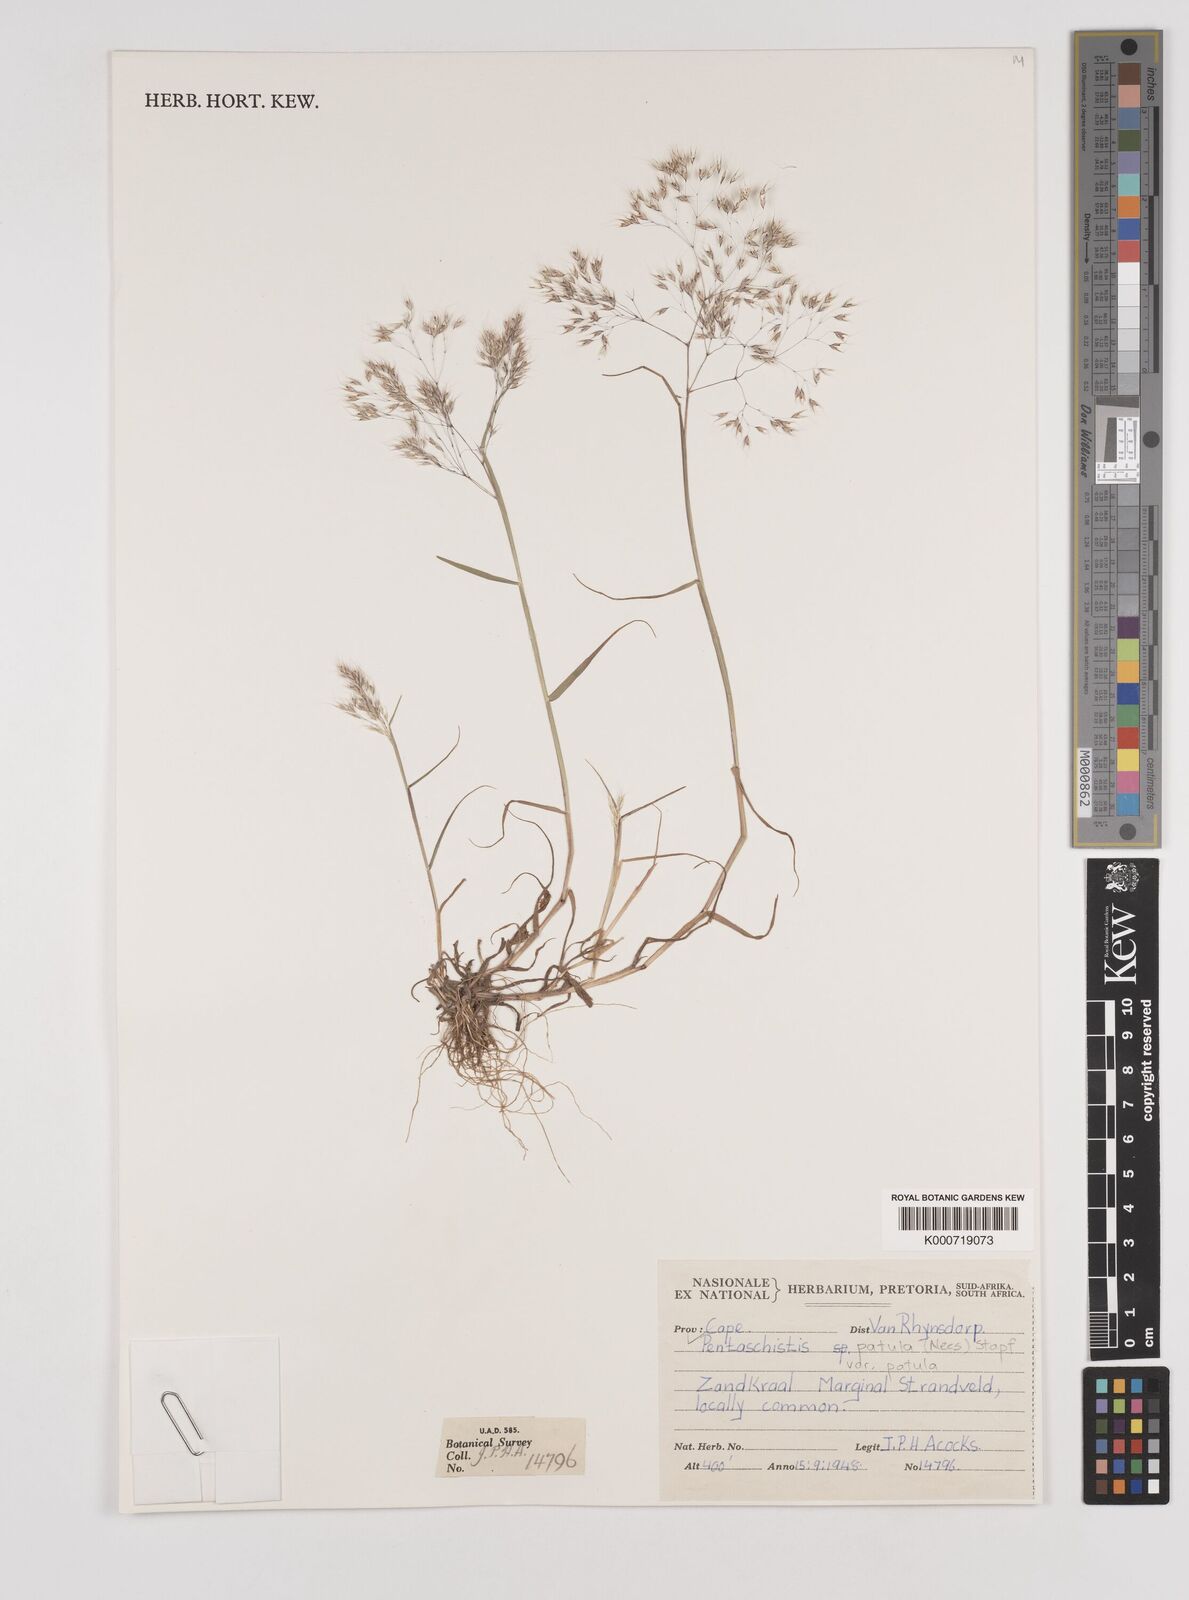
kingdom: Plantae
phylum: Tracheophyta
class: Liliopsida
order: Poales
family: Poaceae
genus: Pentameris
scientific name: Pentameris patula
